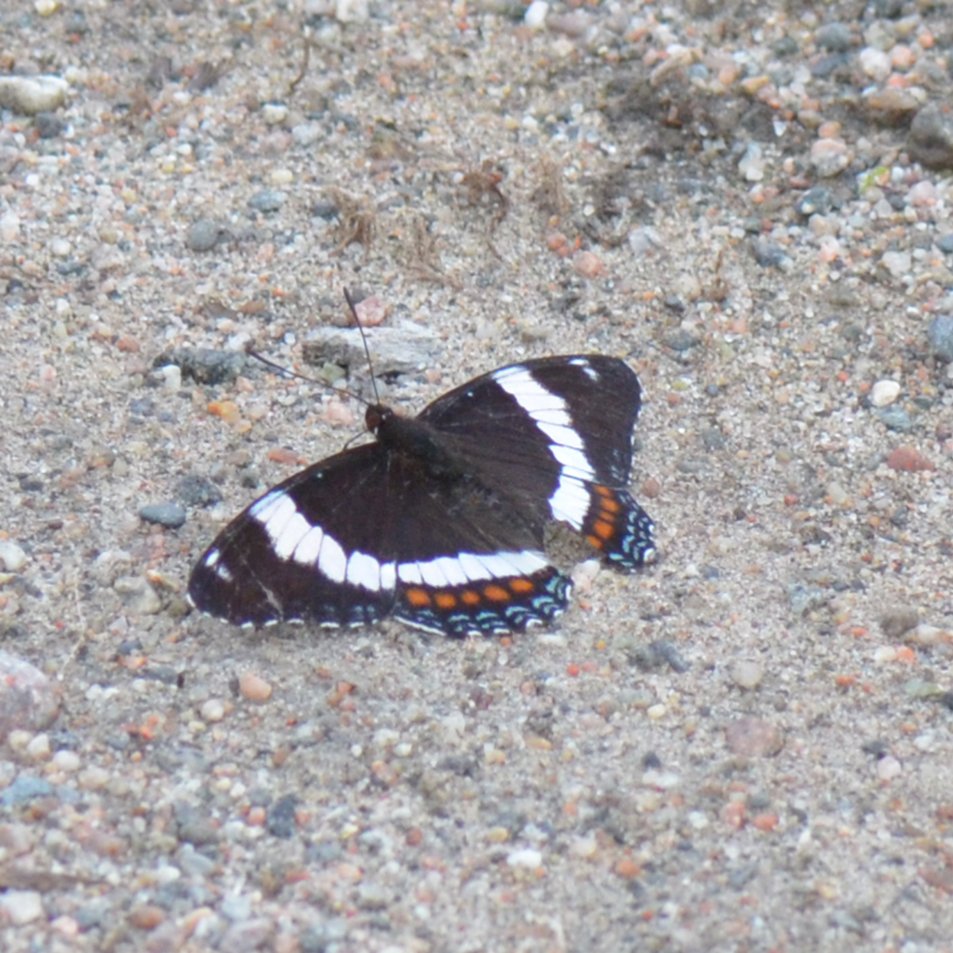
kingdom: Animalia
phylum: Arthropoda
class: Insecta
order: Lepidoptera
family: Nymphalidae
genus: Limenitis
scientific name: Limenitis arthemis
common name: Red-spotted Admiral
